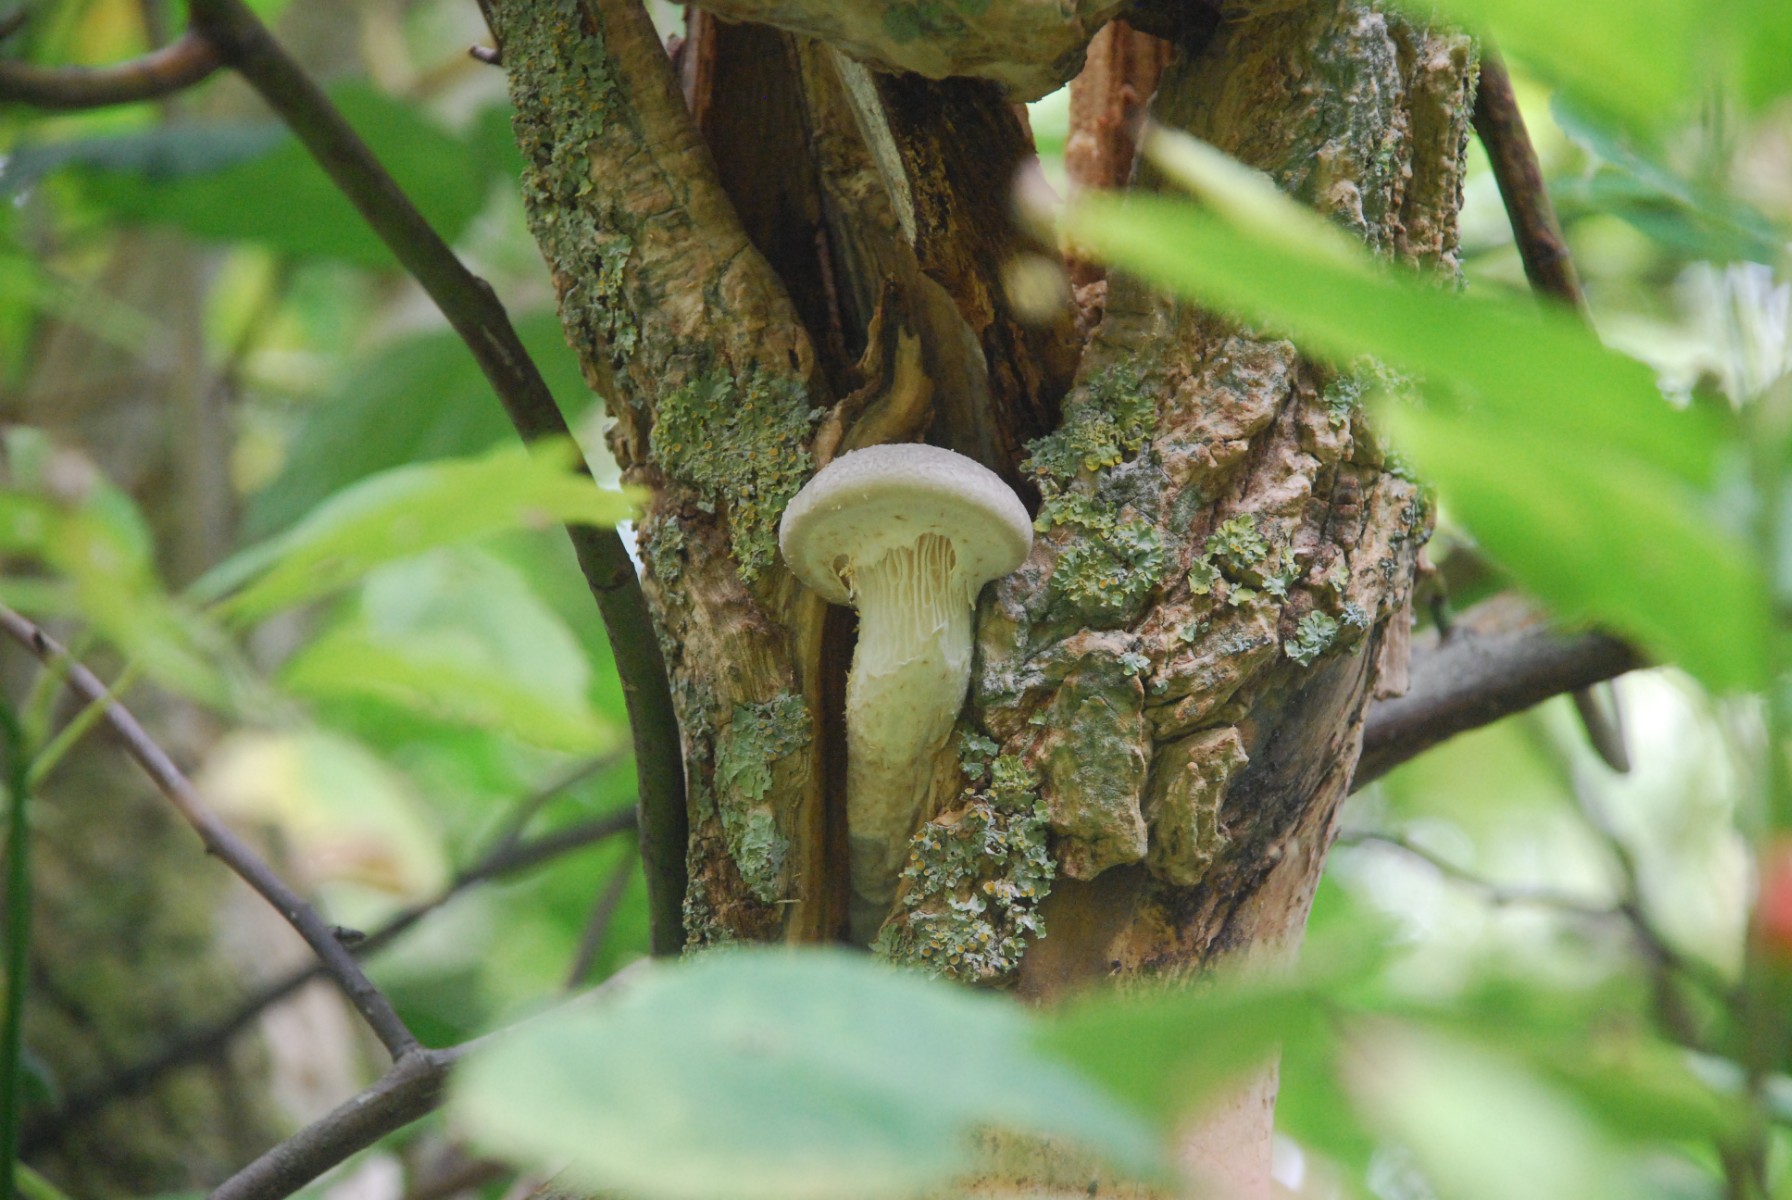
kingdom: Fungi
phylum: Basidiomycota
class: Agaricomycetes
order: Agaricales
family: Pleurotaceae
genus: Pleurotus
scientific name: Pleurotus dryinus
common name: korkagtig østershat
